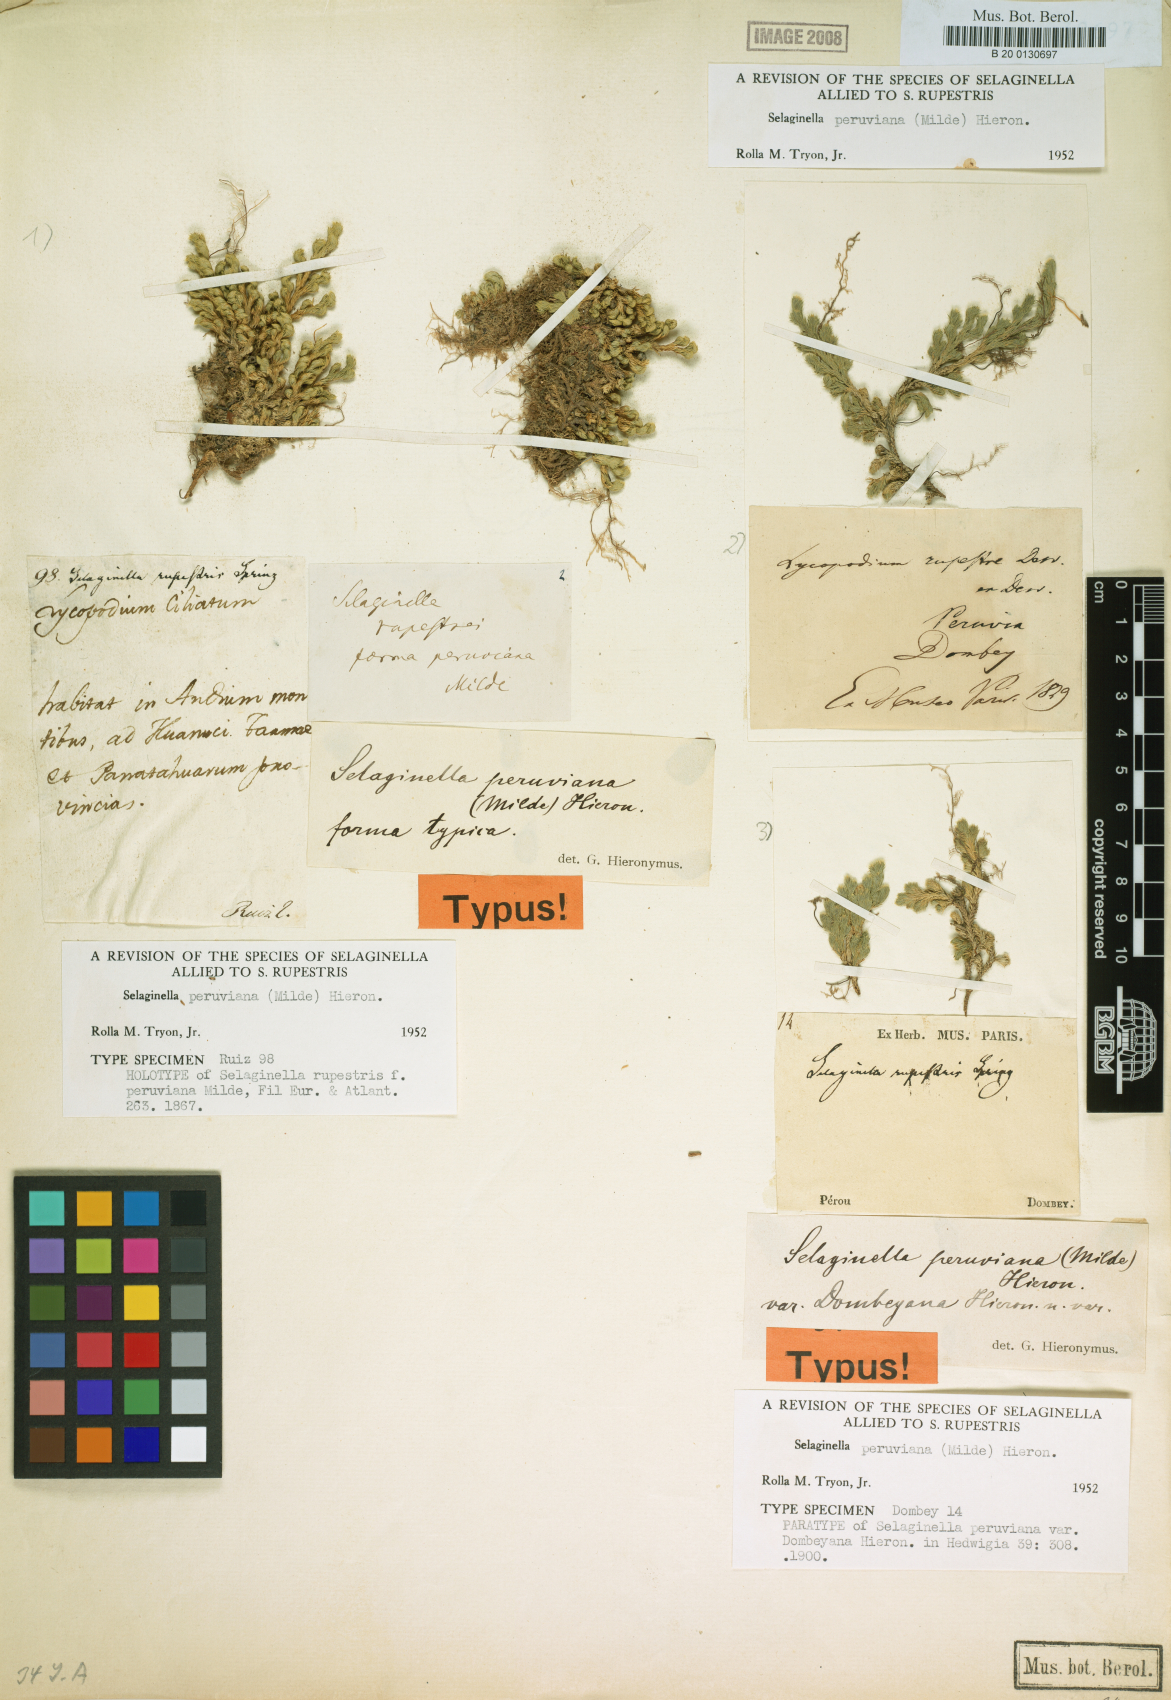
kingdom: Plantae
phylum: Tracheophyta
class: Lycopodiopsida
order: Selaginellales
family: Selaginellaceae
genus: Selaginella
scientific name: Selaginella peruviana
